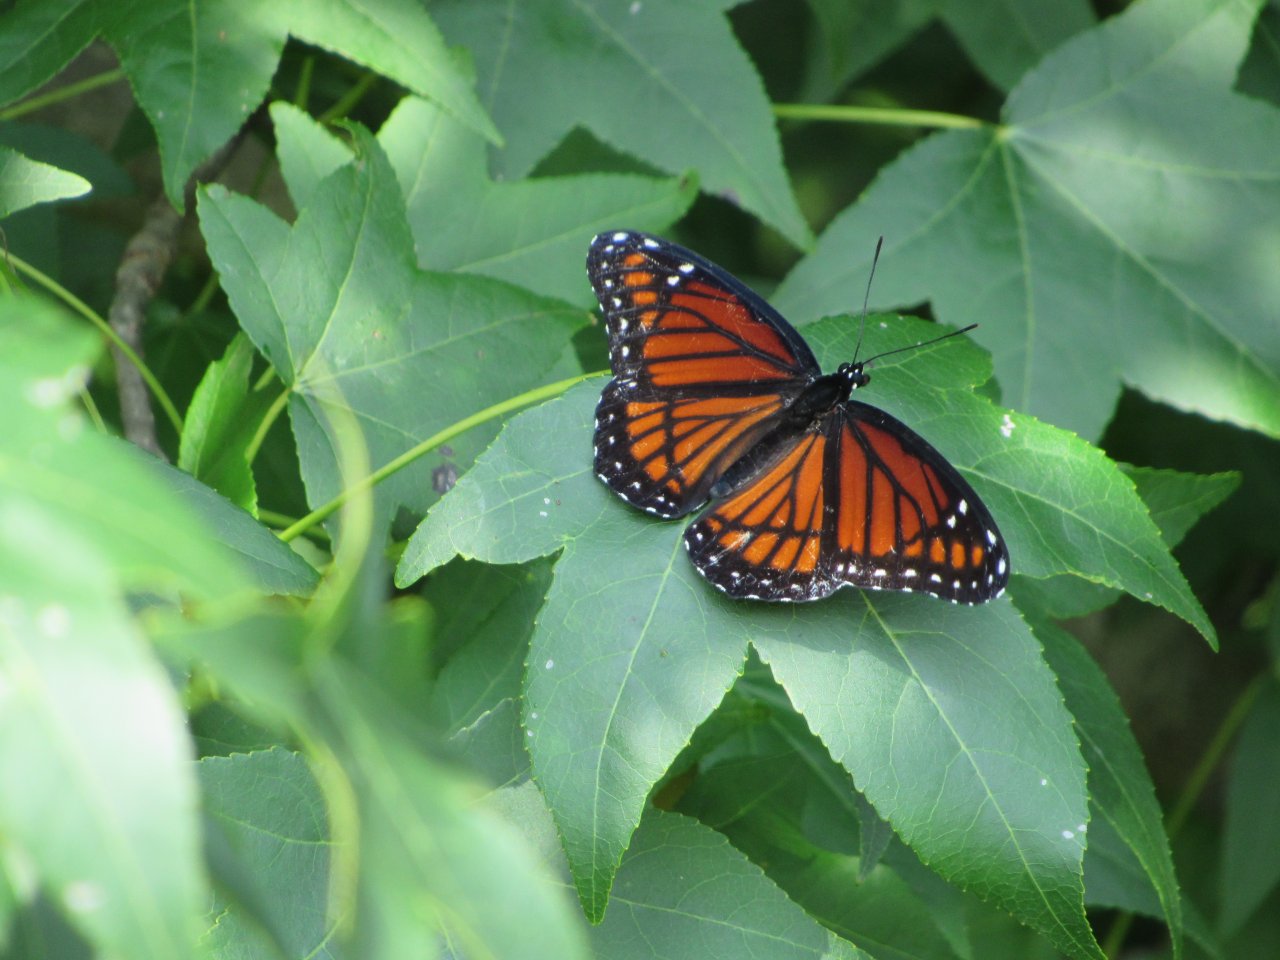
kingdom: Animalia
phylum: Arthropoda
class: Insecta
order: Lepidoptera
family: Nymphalidae
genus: Limenitis
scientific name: Limenitis archippus
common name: Viceroy
